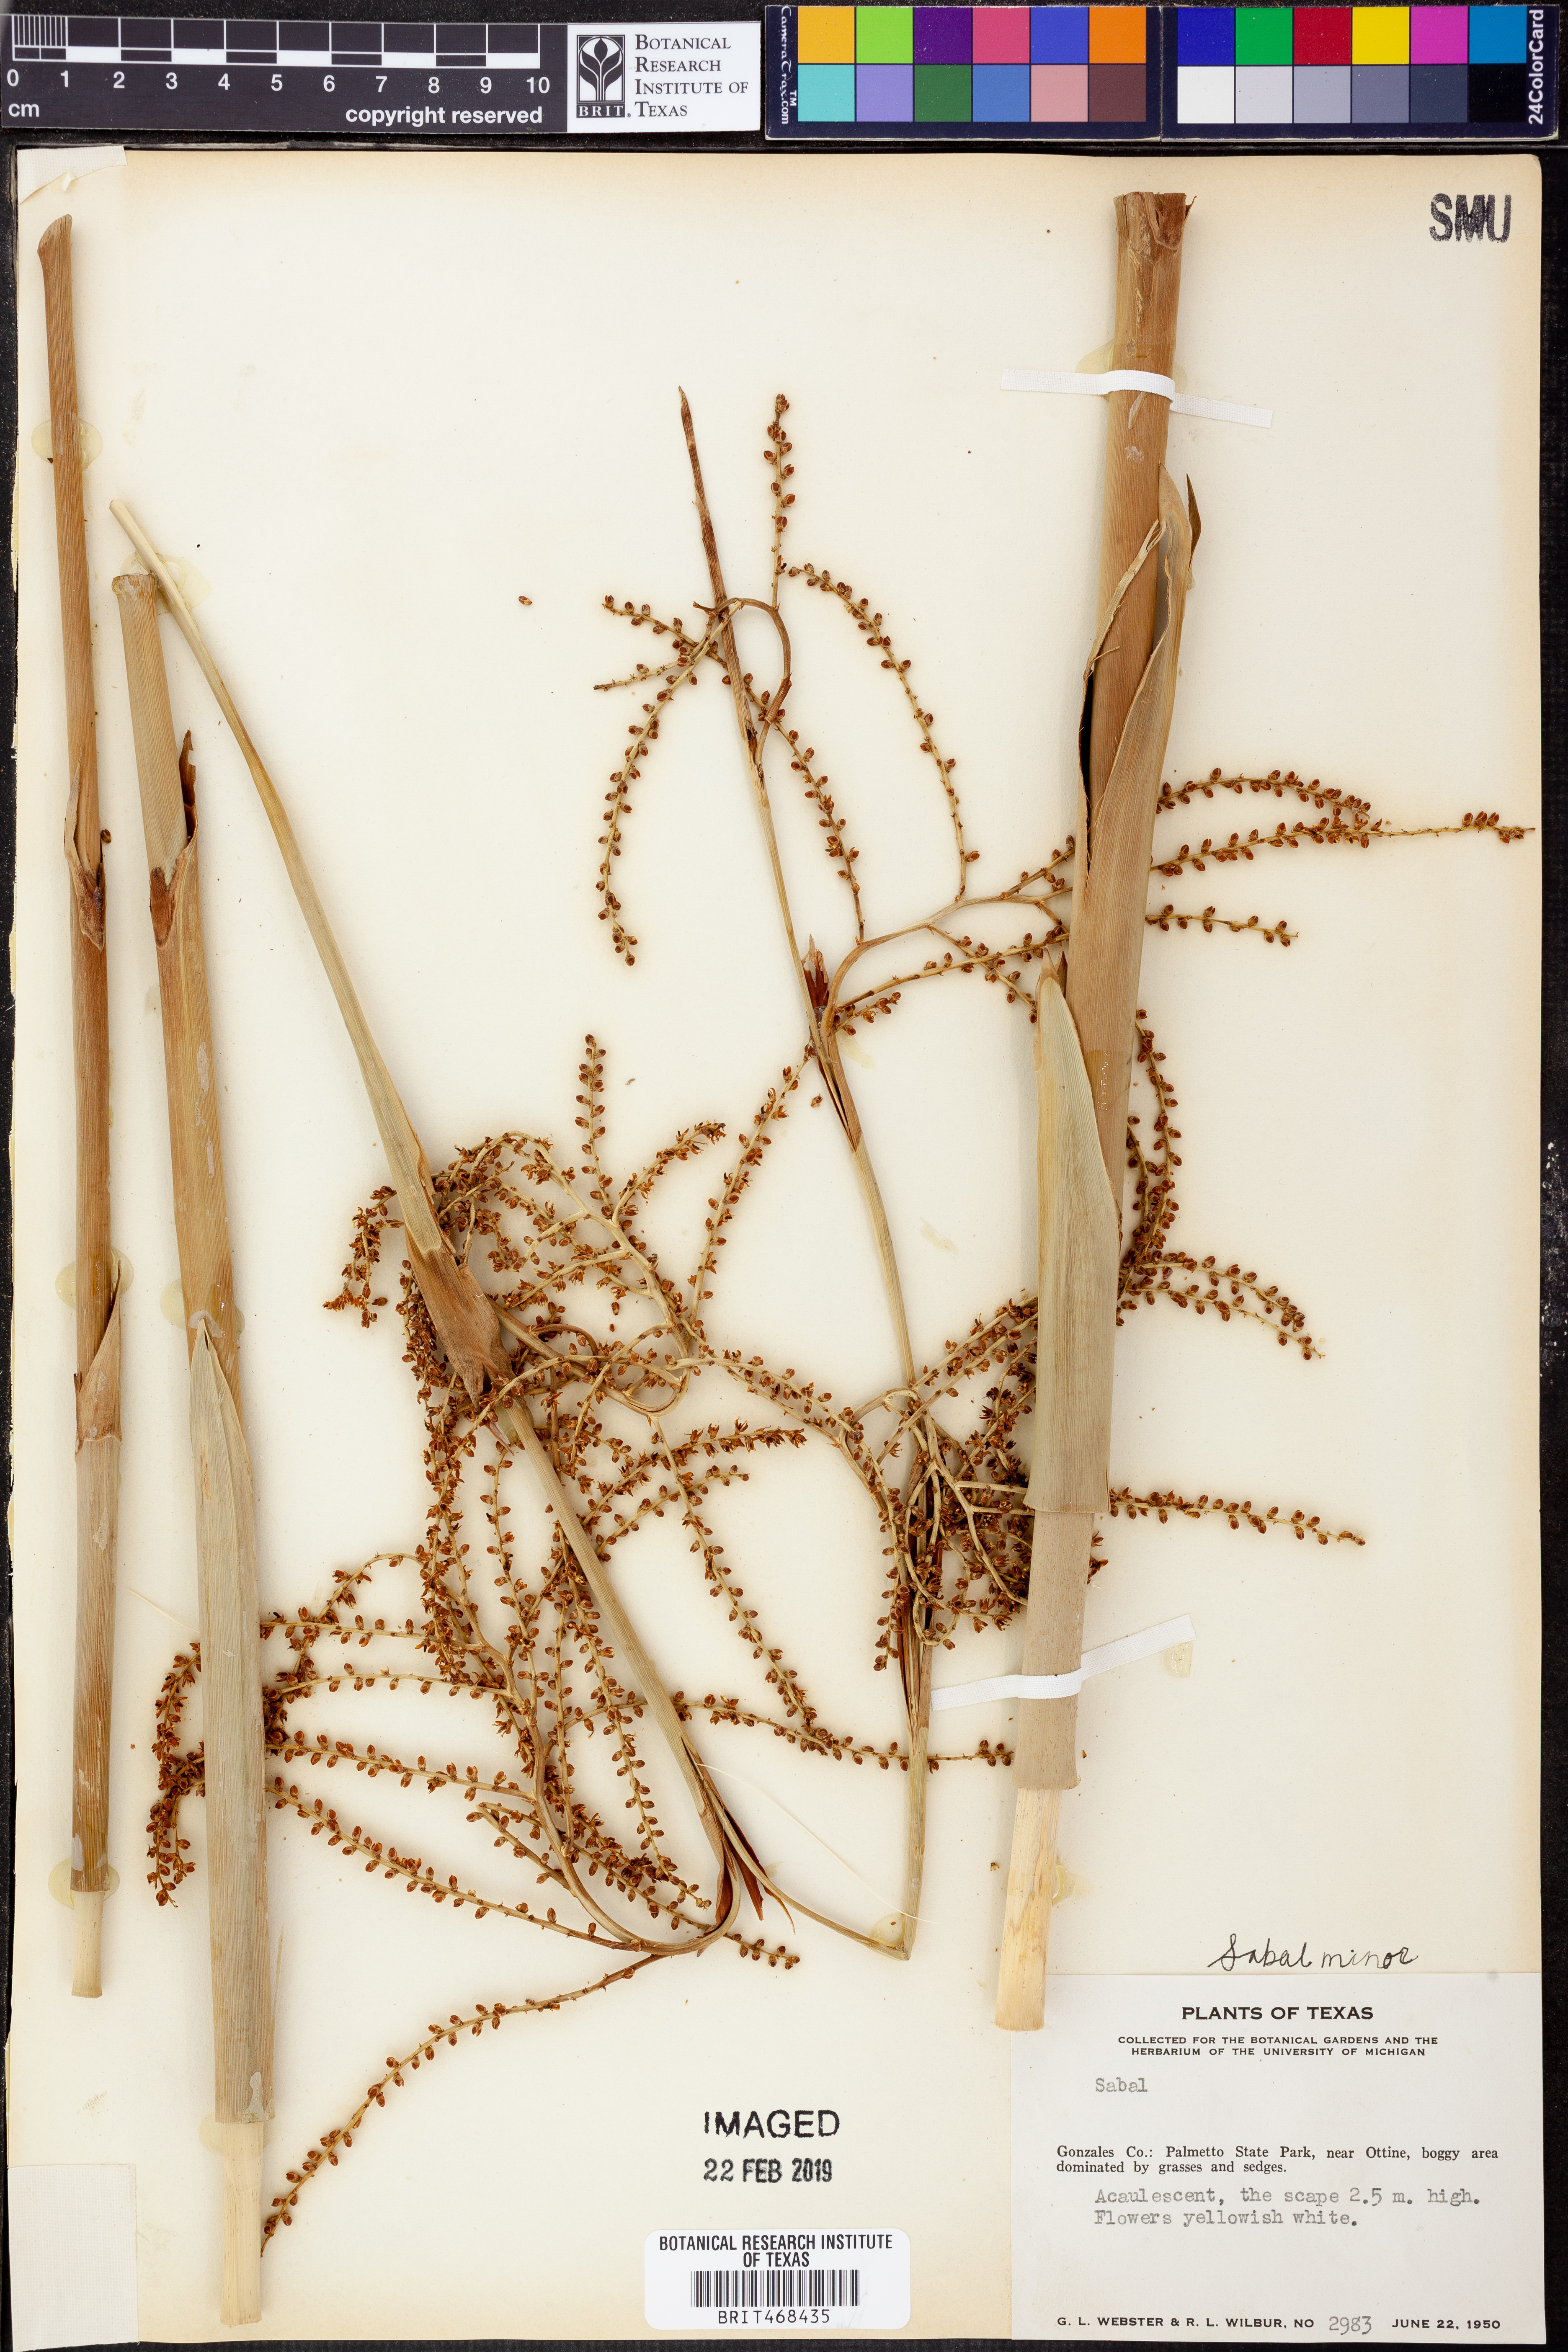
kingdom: Plantae
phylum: Tracheophyta
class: Liliopsida
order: Arecales
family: Arecaceae
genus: Sabal
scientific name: Sabal minor
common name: Dwarf palmetto
